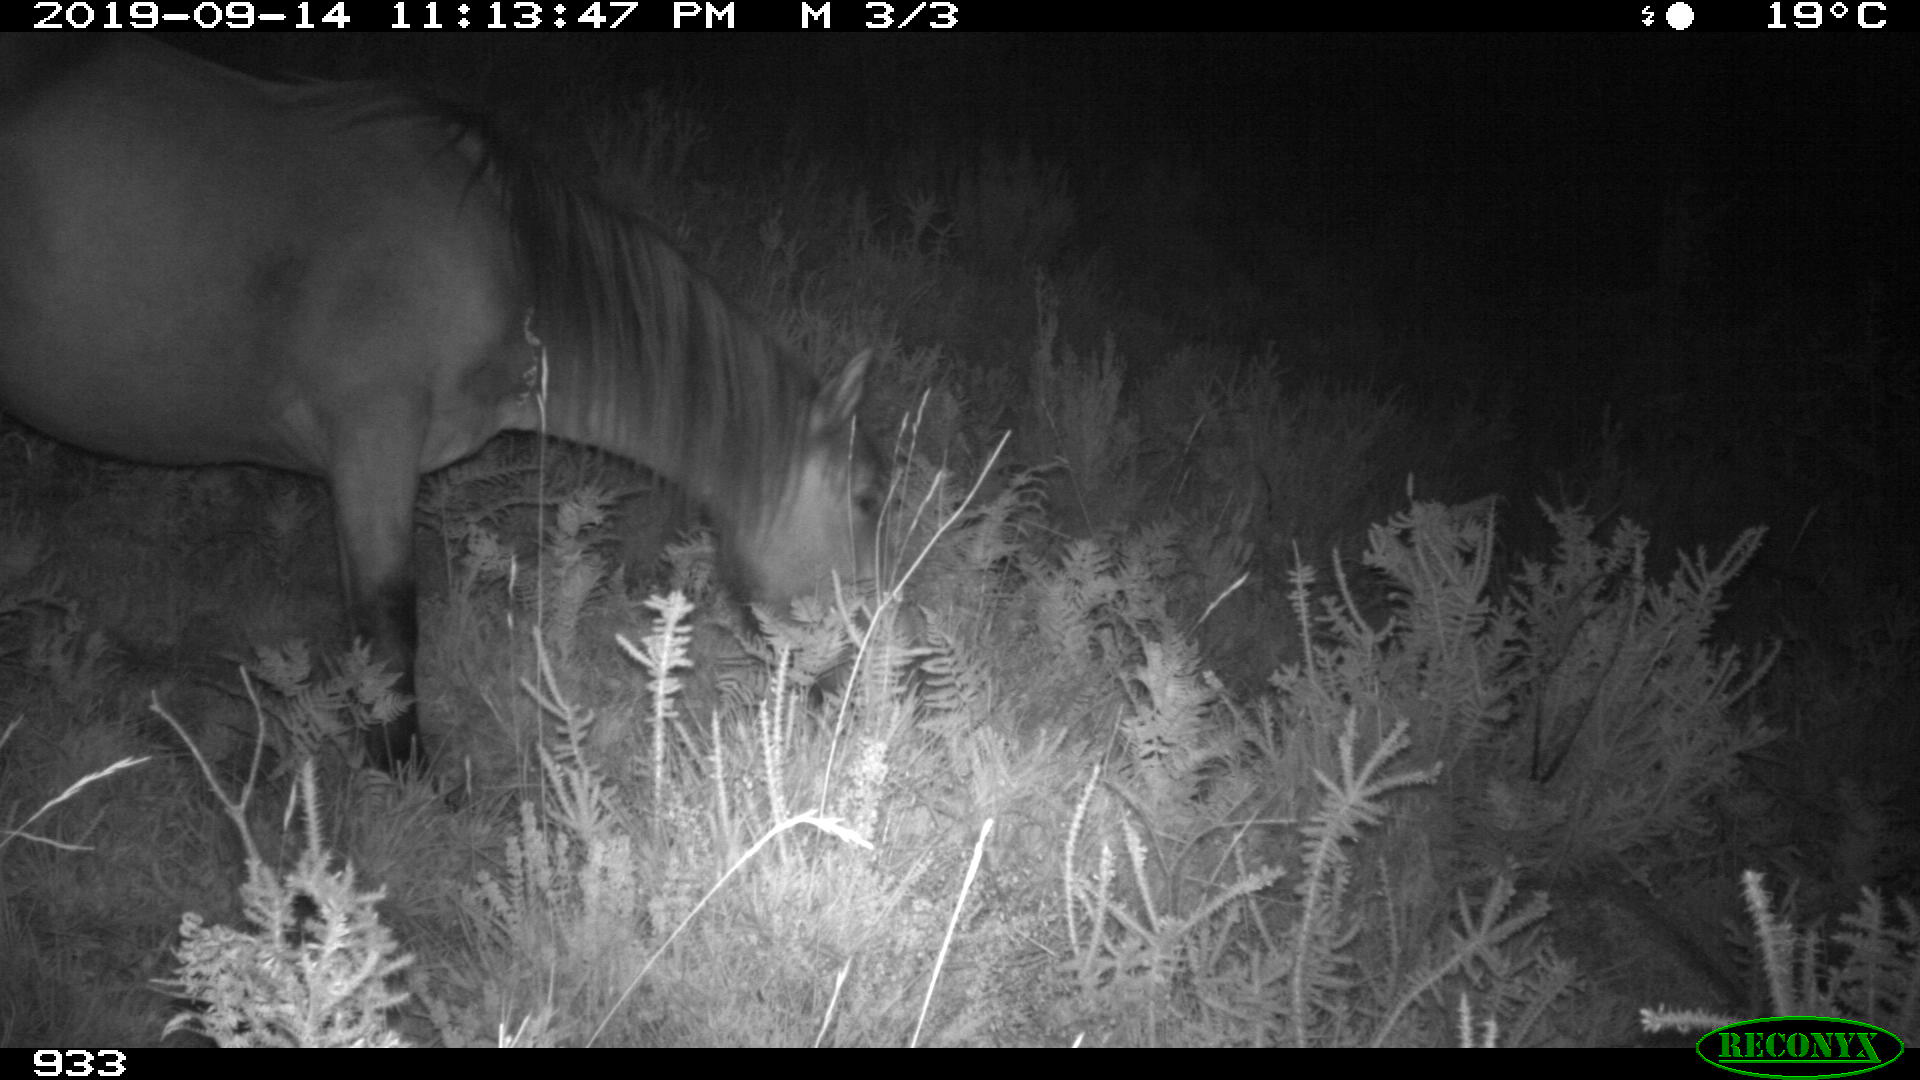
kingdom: Animalia
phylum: Chordata
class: Mammalia
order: Perissodactyla
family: Equidae
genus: Equus
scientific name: Equus caballus
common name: Horse
